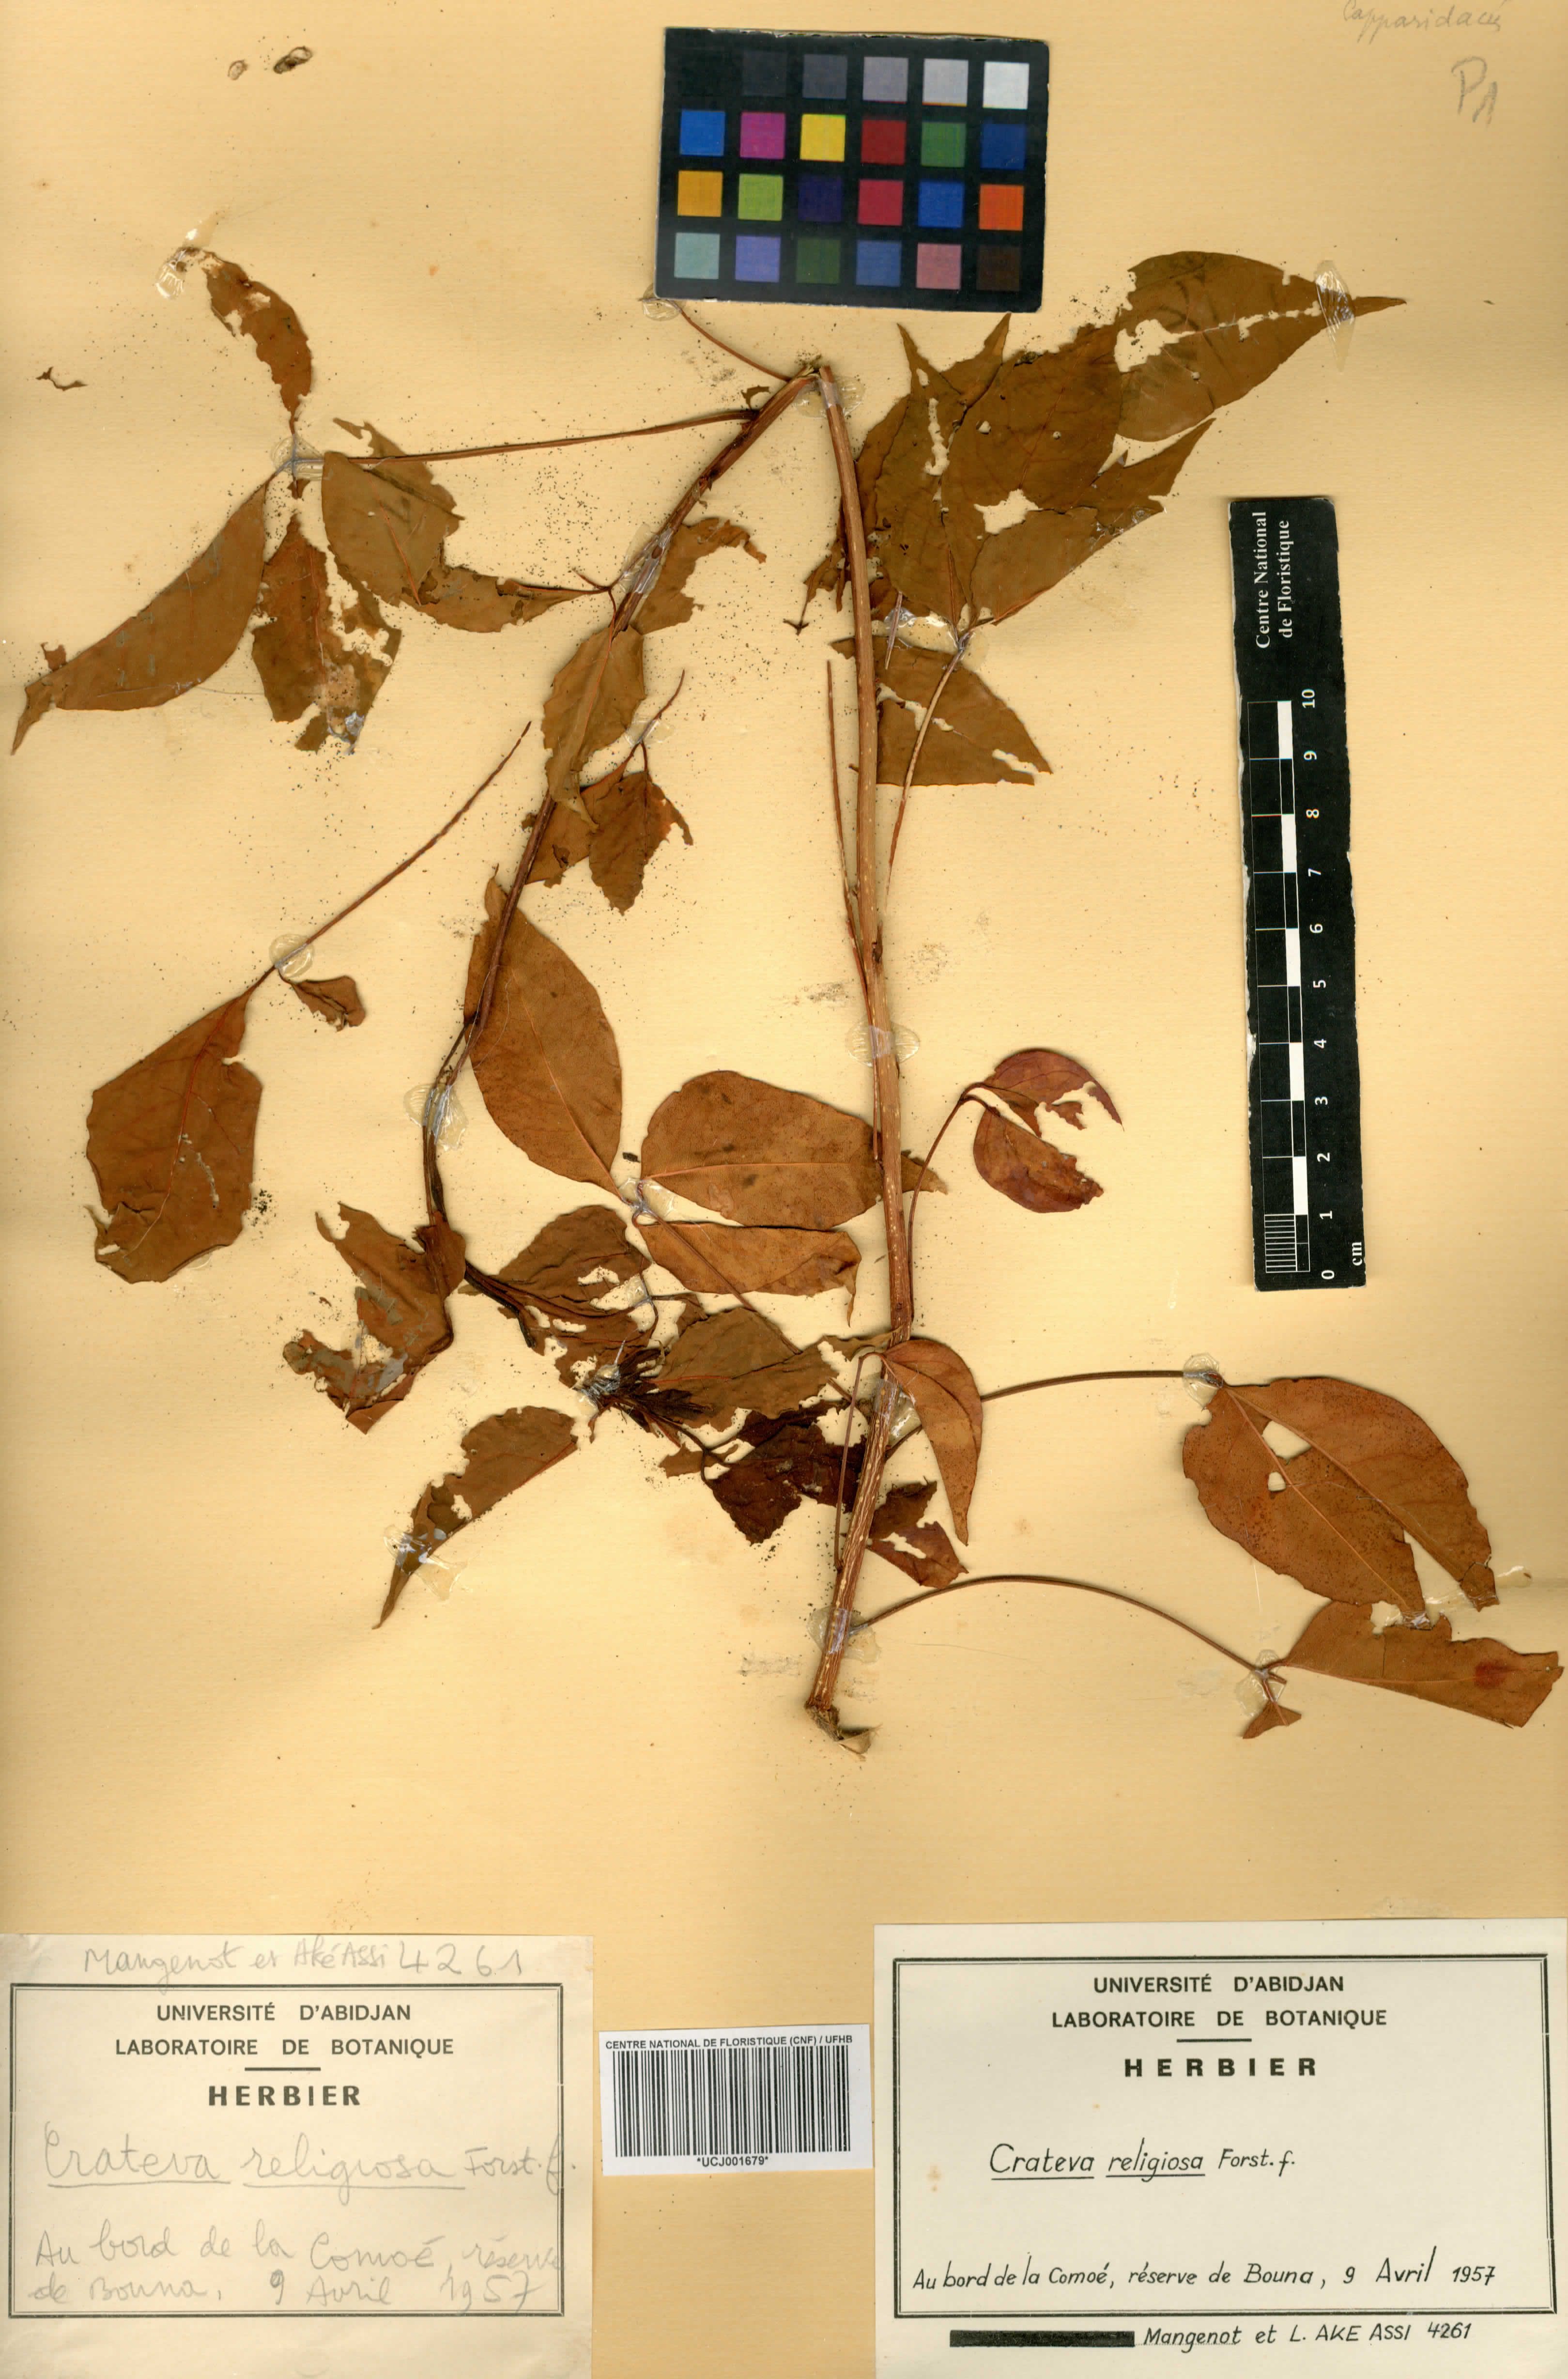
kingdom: Plantae
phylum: Tracheophyta
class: Magnoliopsida
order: Brassicales
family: Capparaceae
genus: Crateva
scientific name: Crateva religiosa
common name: March dalur
